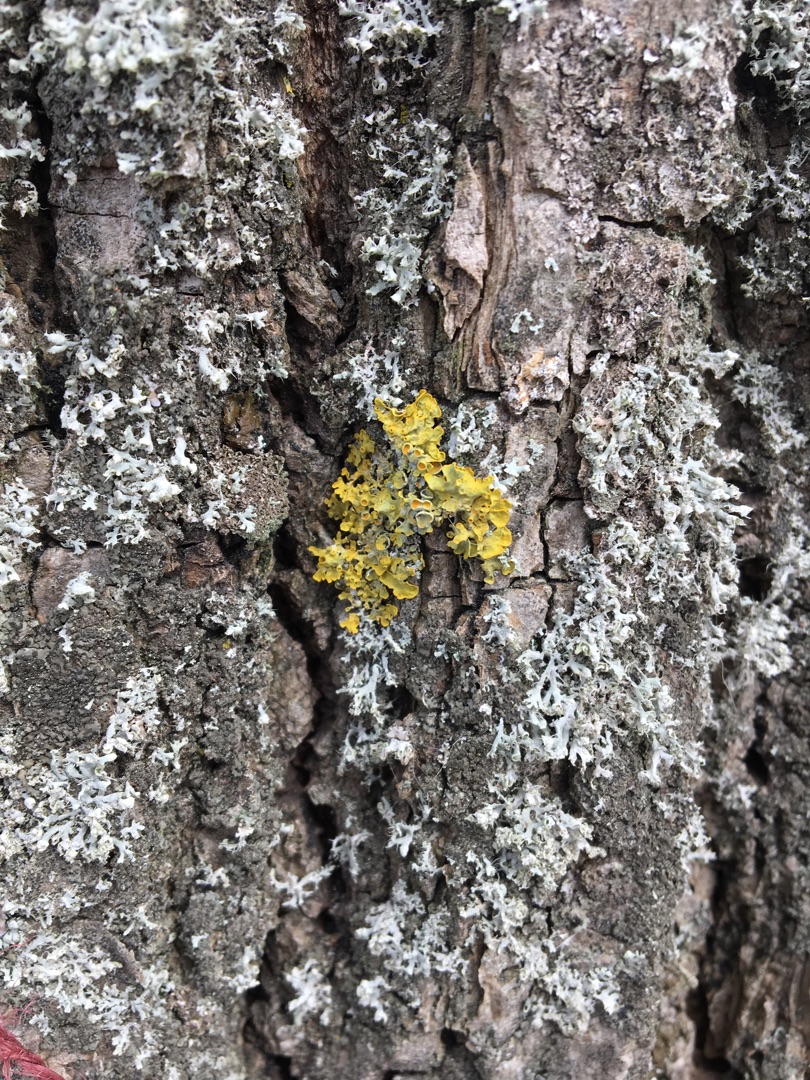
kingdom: Fungi
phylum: Ascomycota
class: Lecanoromycetes
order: Teloschistales
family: Teloschistaceae
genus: Xanthoria
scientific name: Xanthoria parietina
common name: Almindelig væggelav
